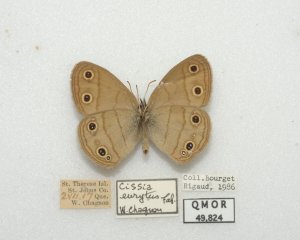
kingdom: Animalia
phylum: Arthropoda
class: Insecta
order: Lepidoptera
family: Nymphalidae
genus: Euptychia
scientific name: Euptychia cymela
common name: Little Wood Satyr
